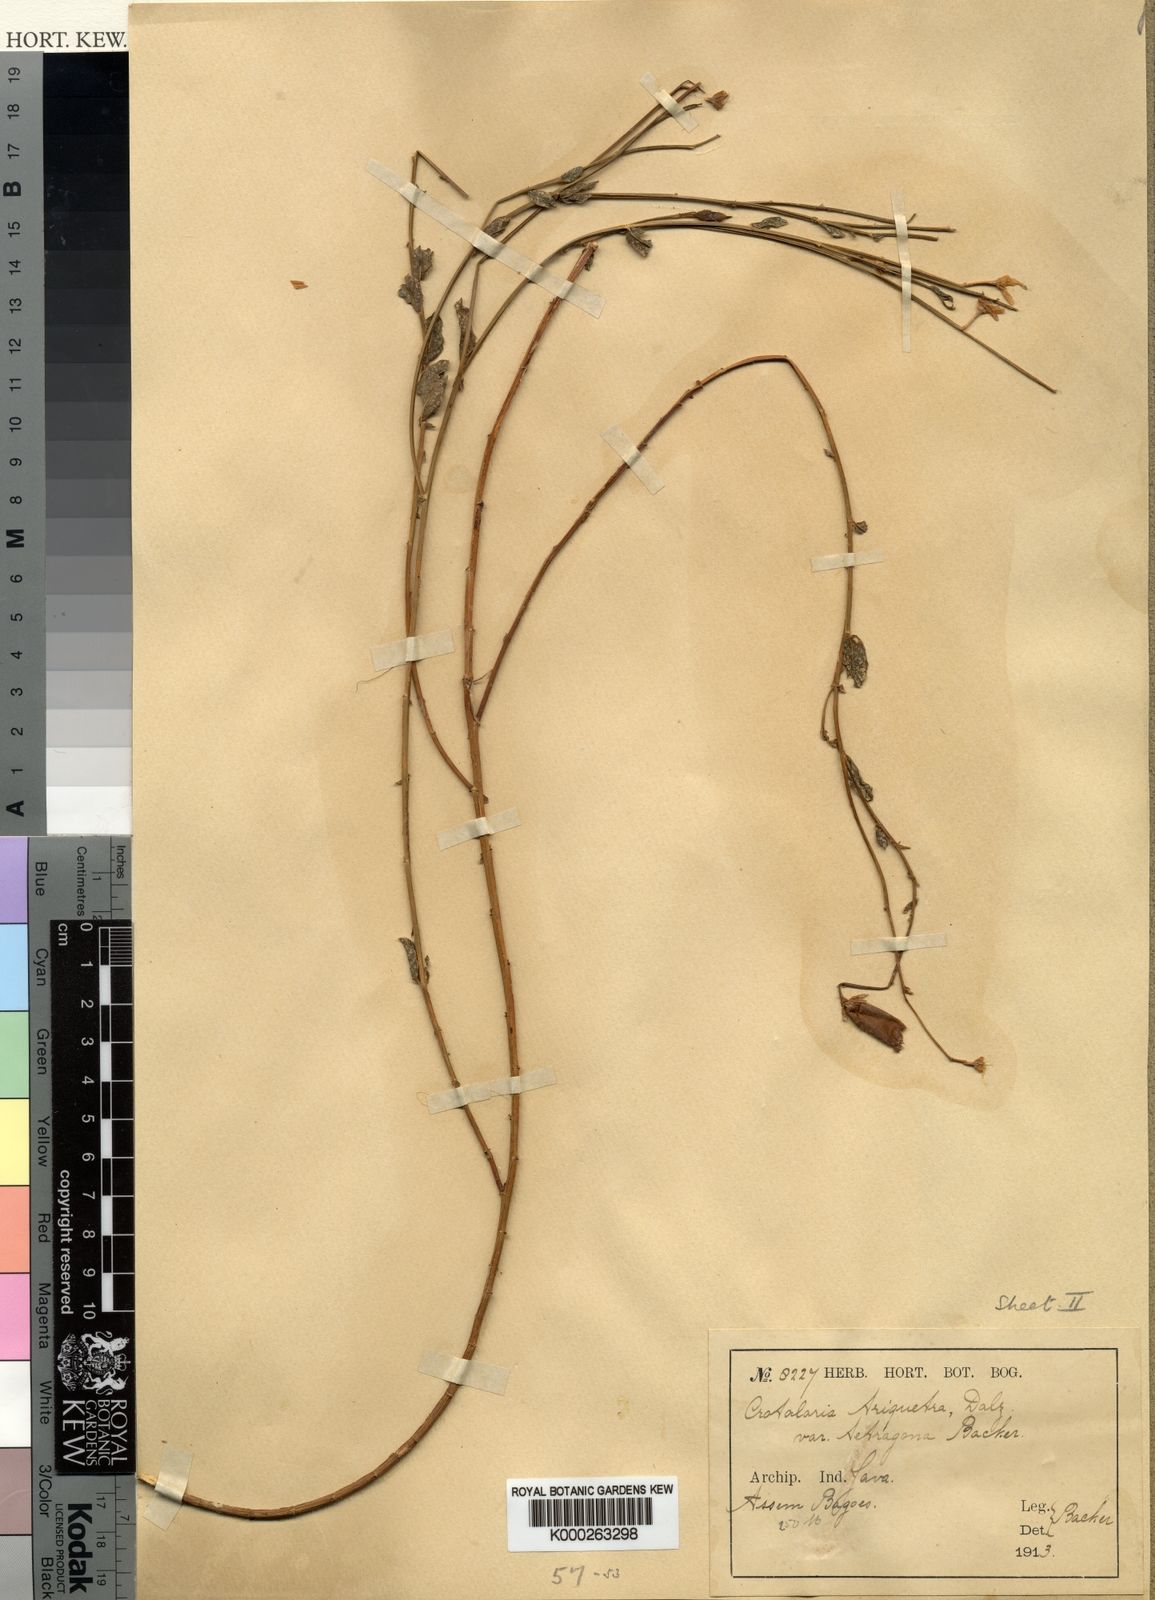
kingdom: Plantae
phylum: Tracheophyta
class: Magnoliopsida
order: Fabales
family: Fabaceae
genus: Crotalaria
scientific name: Crotalaria triquetra
